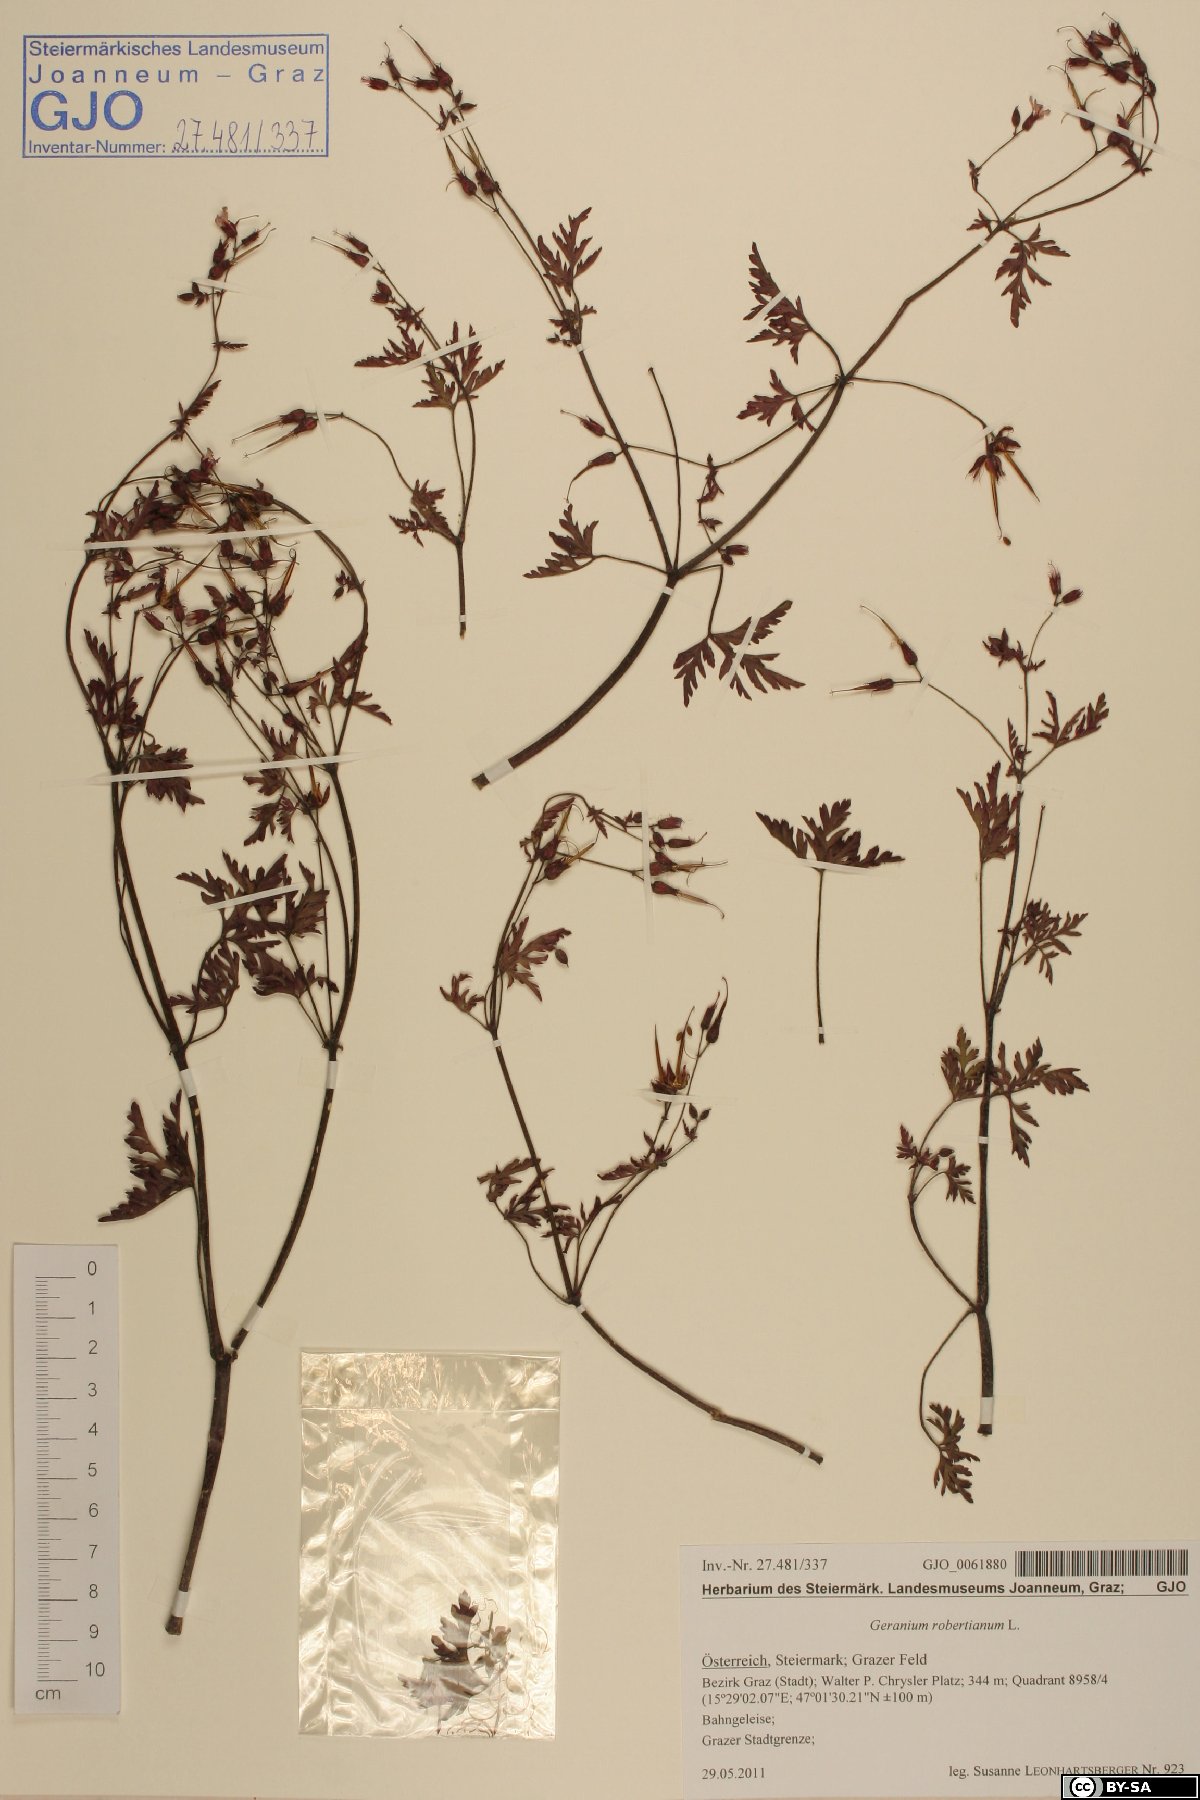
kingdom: Plantae
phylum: Tracheophyta
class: Magnoliopsida
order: Geraniales
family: Geraniaceae
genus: Geranium
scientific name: Geranium robertianum
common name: Herb-robert
